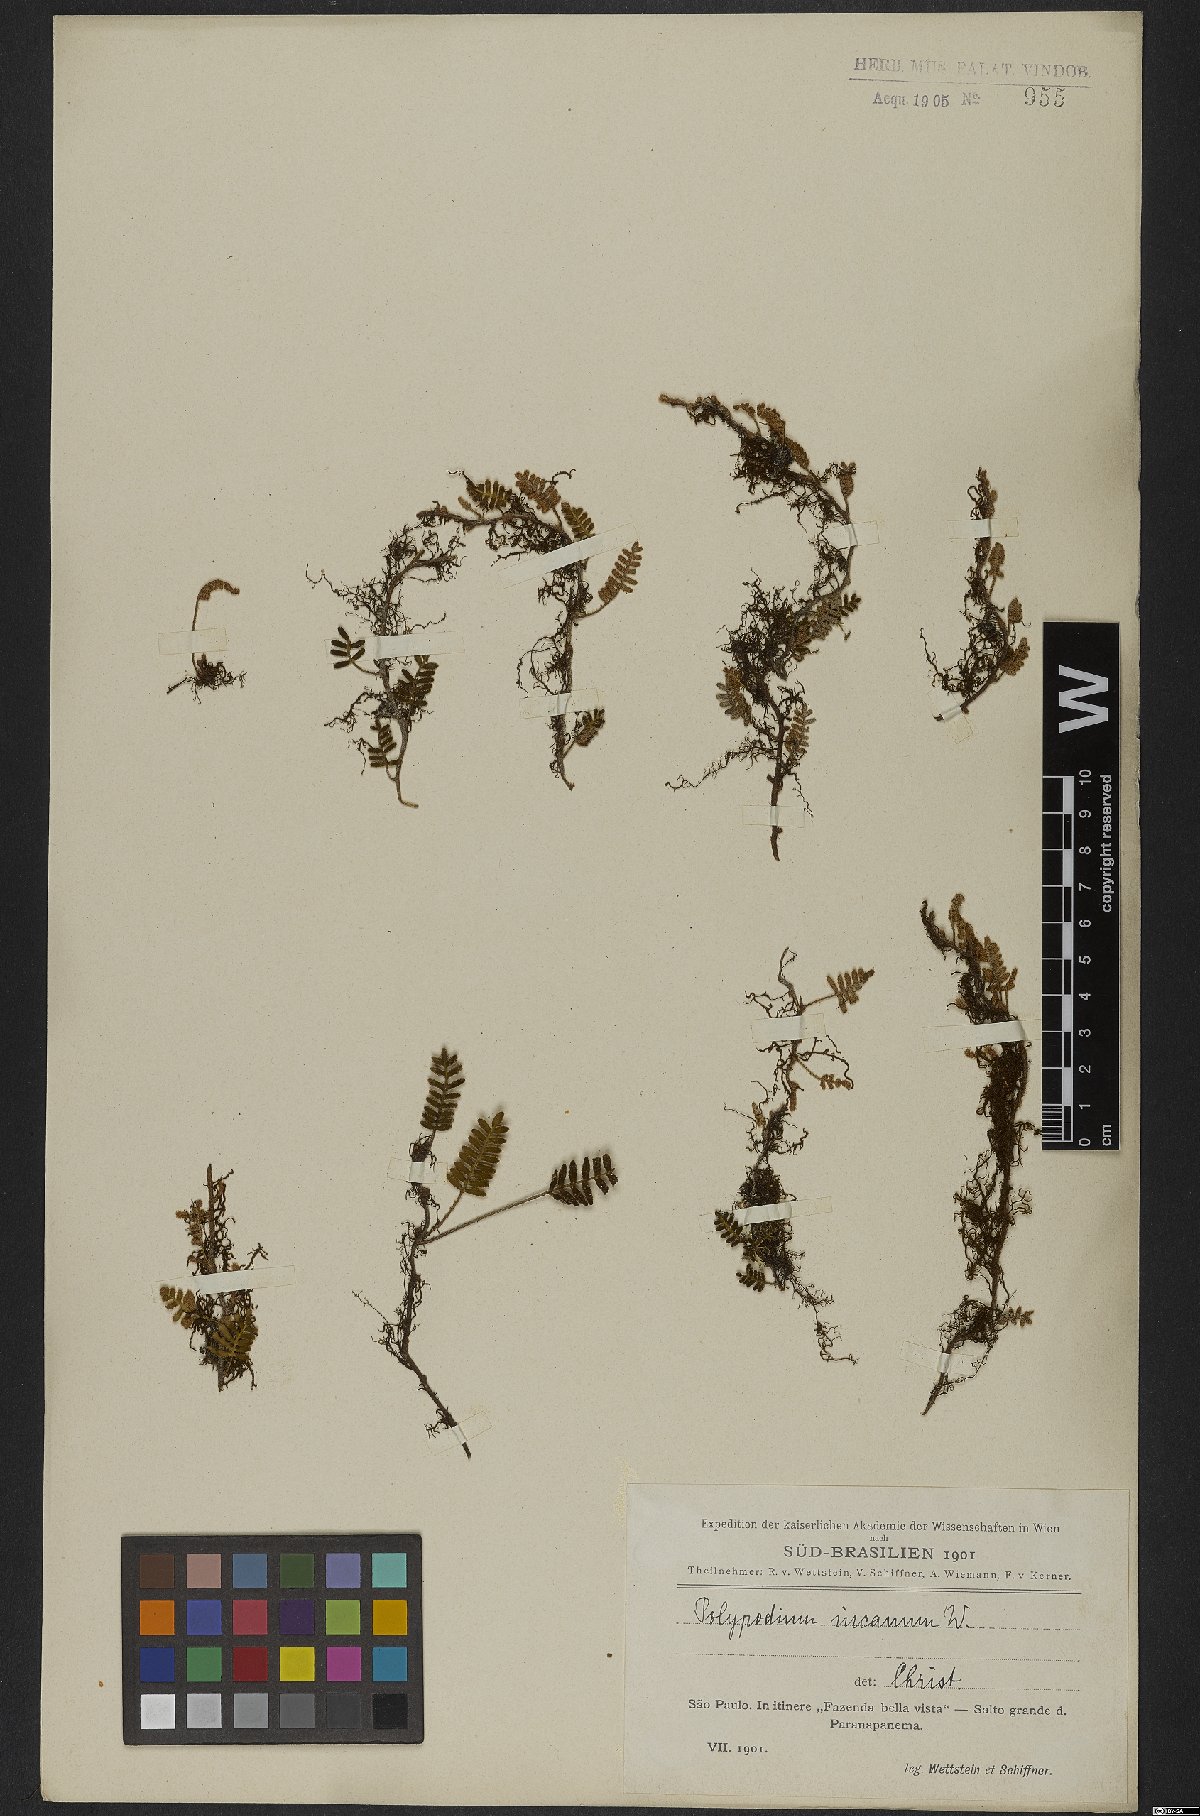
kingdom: Plantae
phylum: Tracheophyta
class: Polypodiopsida
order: Polypodiales
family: Polypodiaceae
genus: Pleopeltis
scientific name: Pleopeltis polypodioides
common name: Resurrection fern
